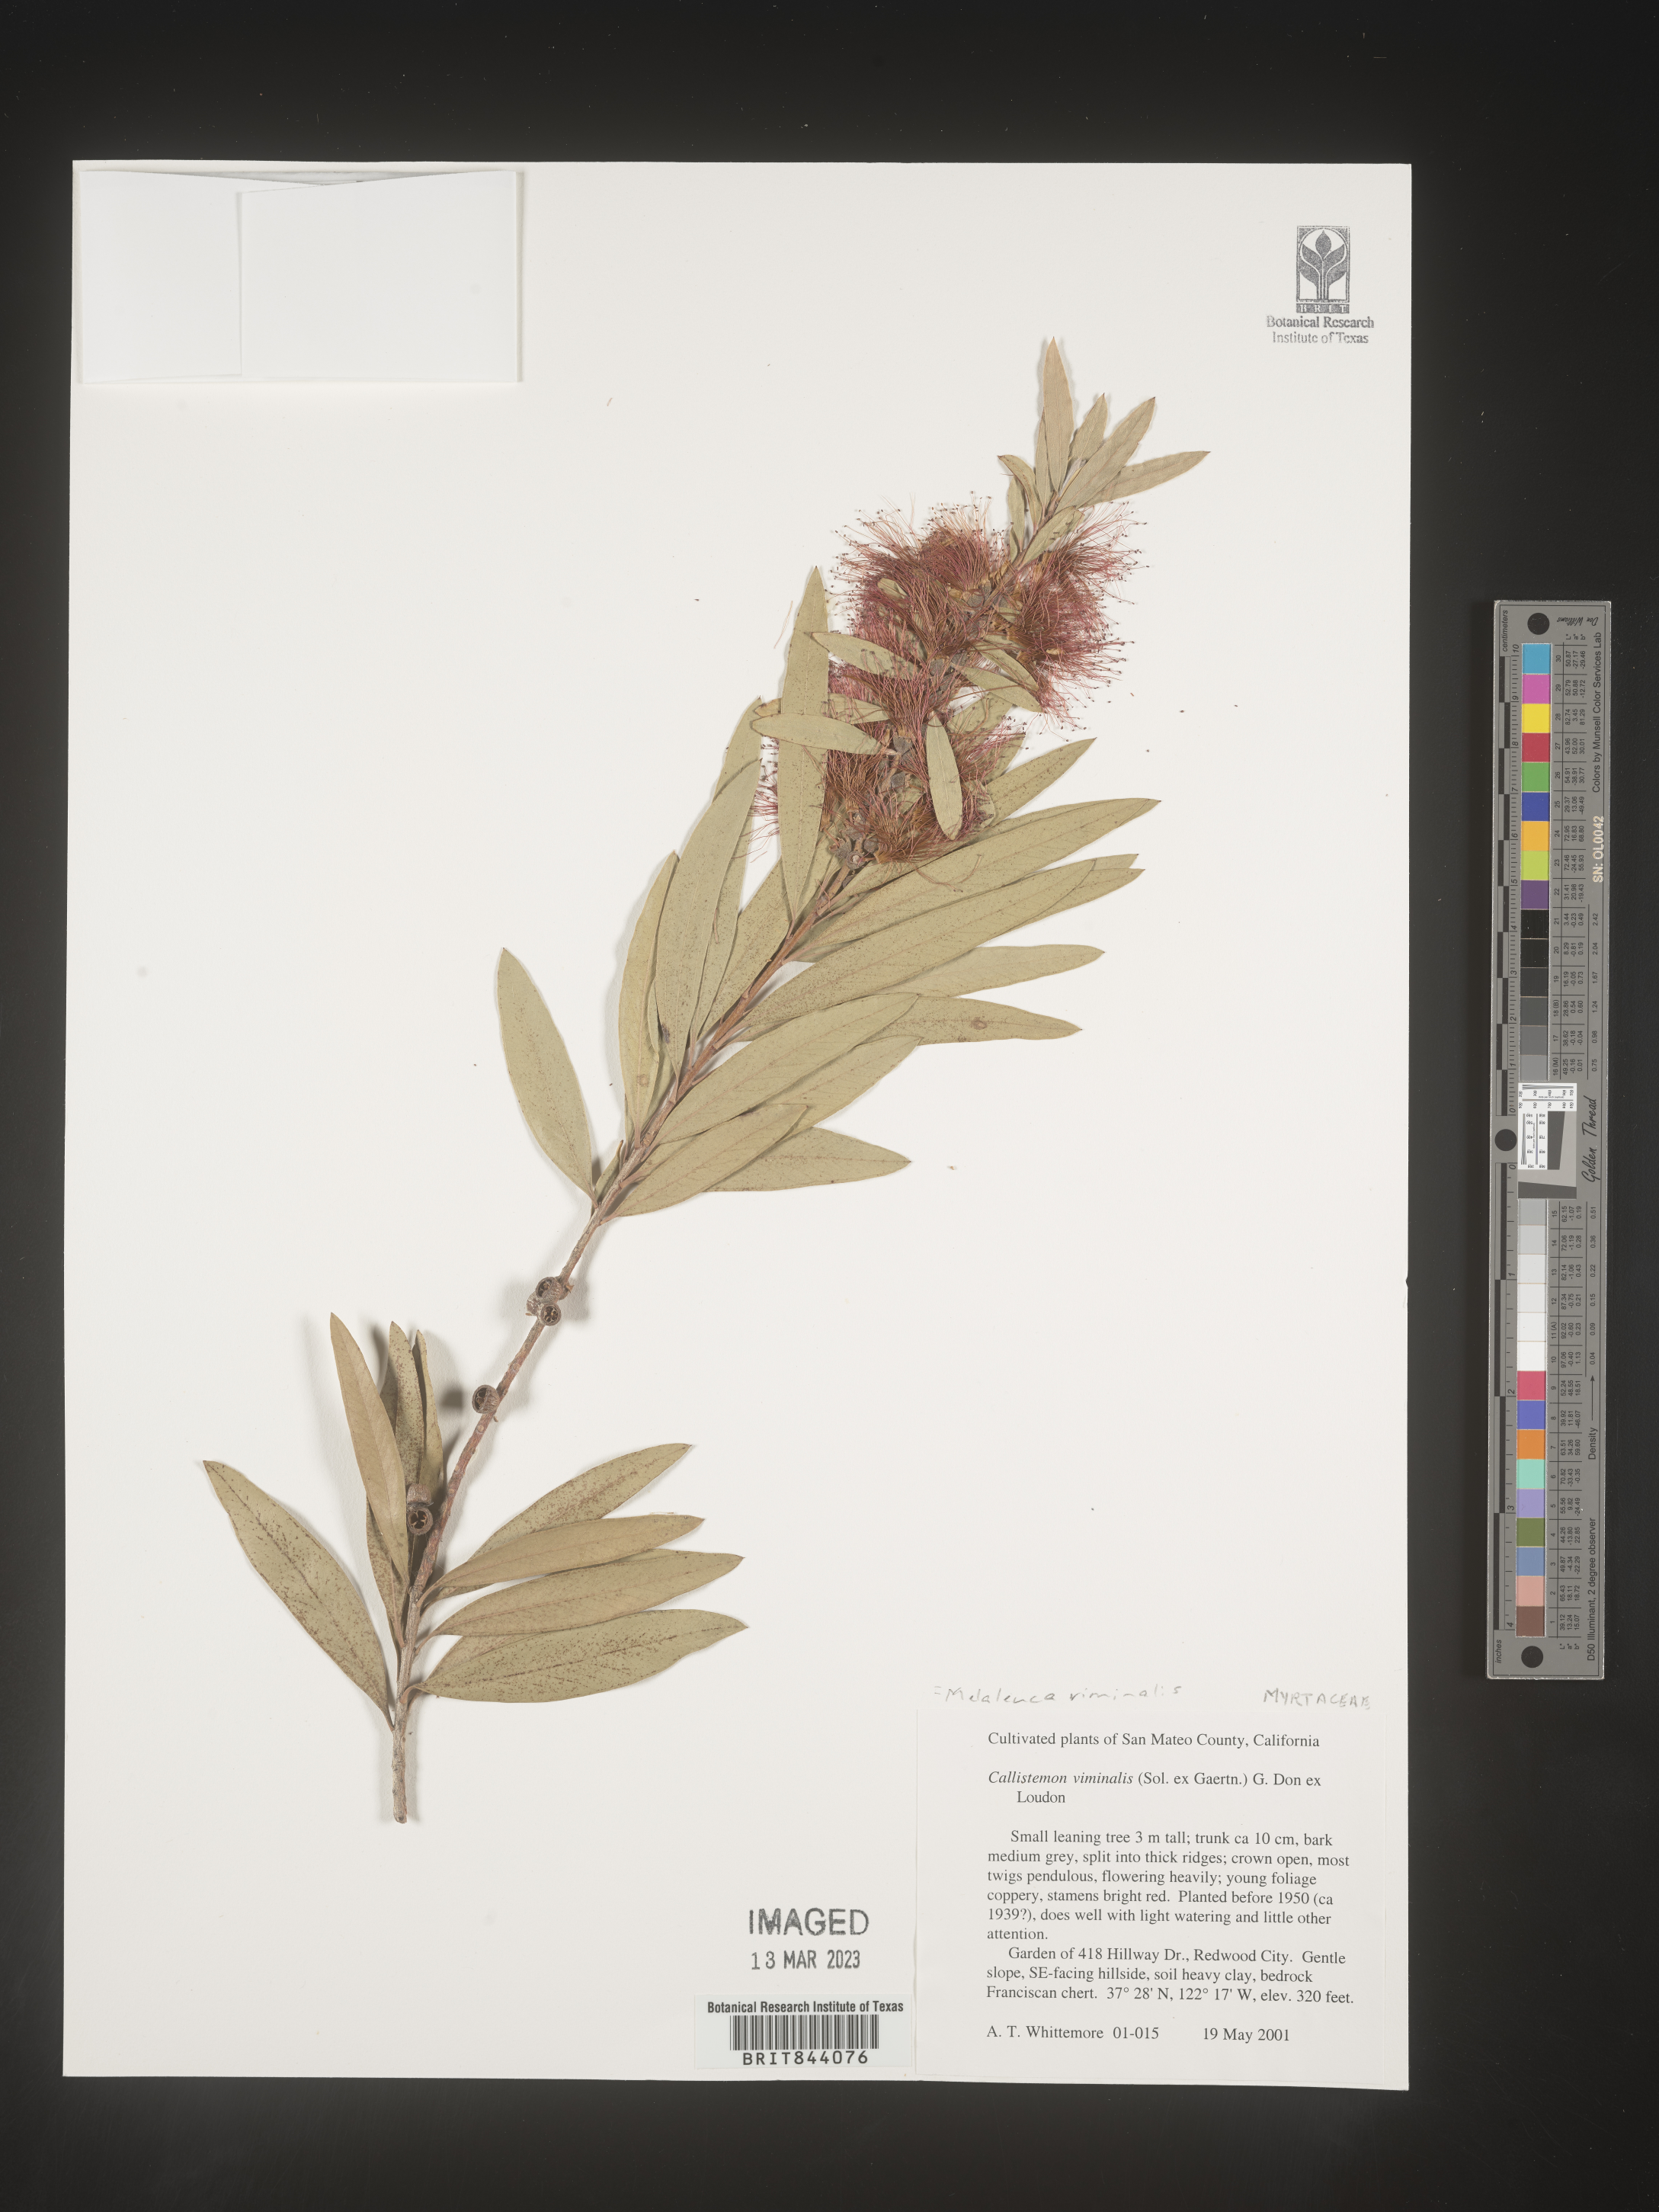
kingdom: Plantae
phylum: Tracheophyta
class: Magnoliopsida
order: Myrtales
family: Myrtaceae
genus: Callistemon
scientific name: Callistemon viminalis
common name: Drooping bottlebrush
